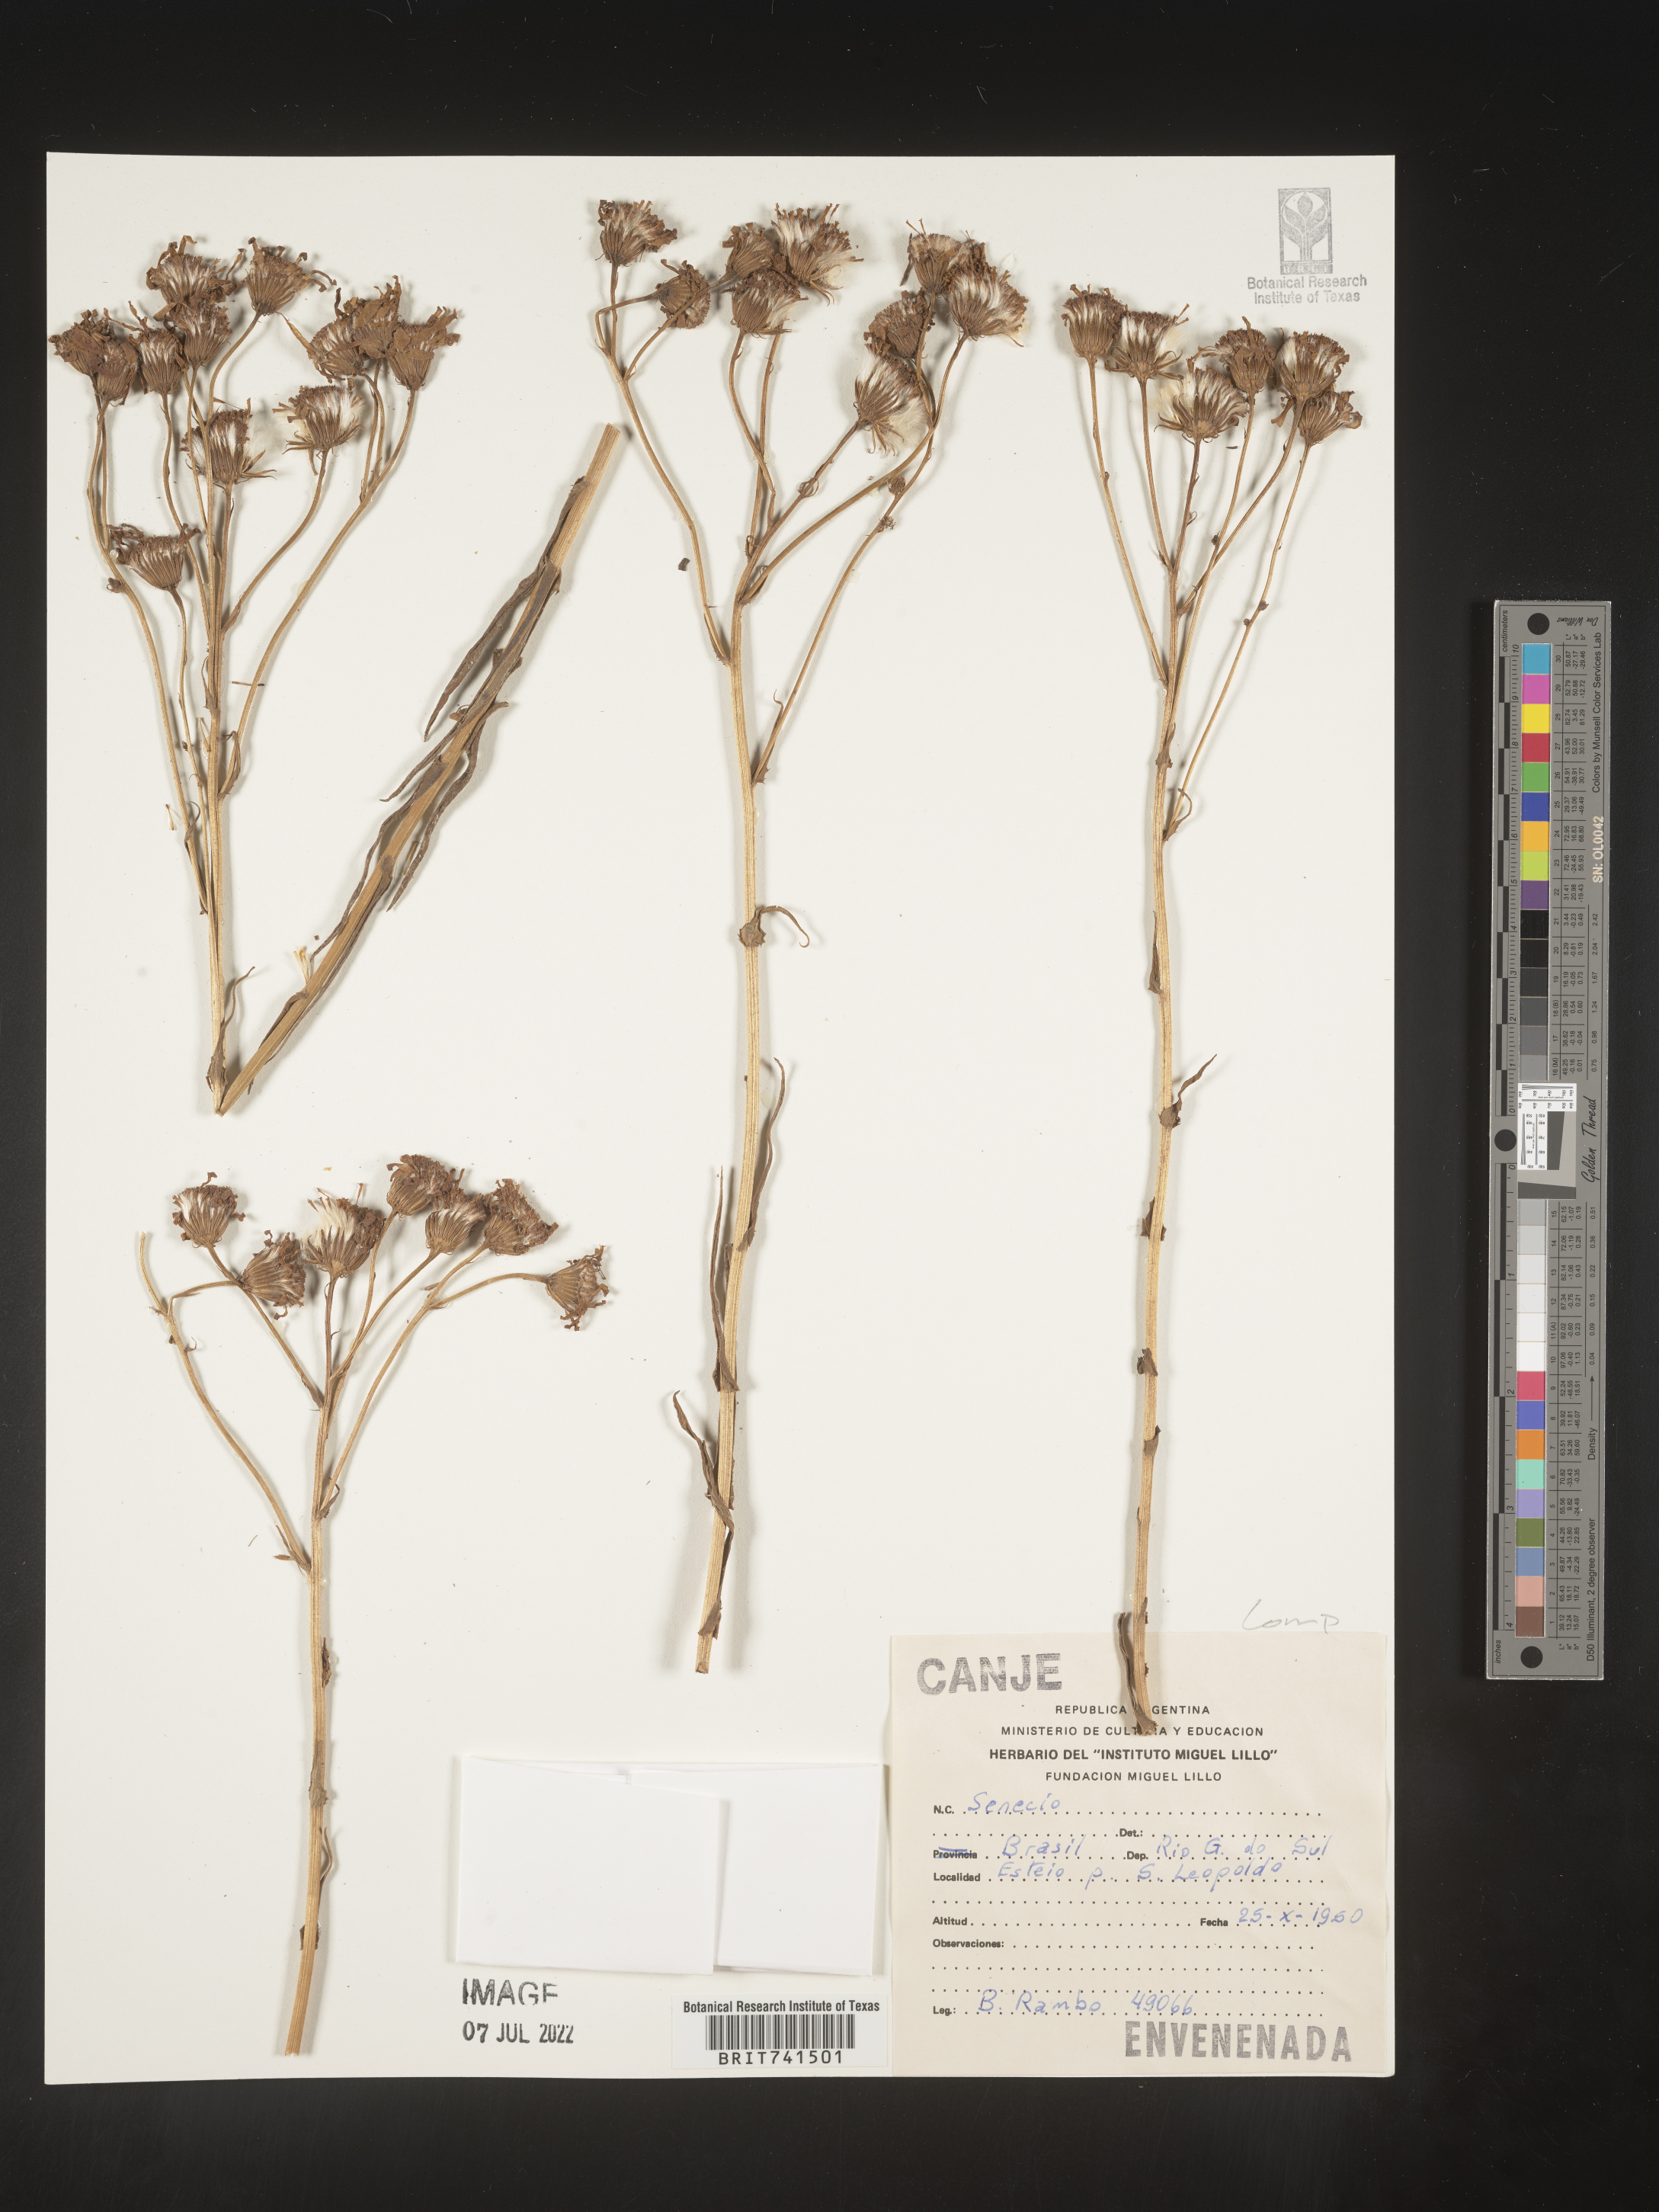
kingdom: Plantae
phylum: Tracheophyta
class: Magnoliopsida
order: Asterales
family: Asteraceae
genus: Senecio
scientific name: Senecio
